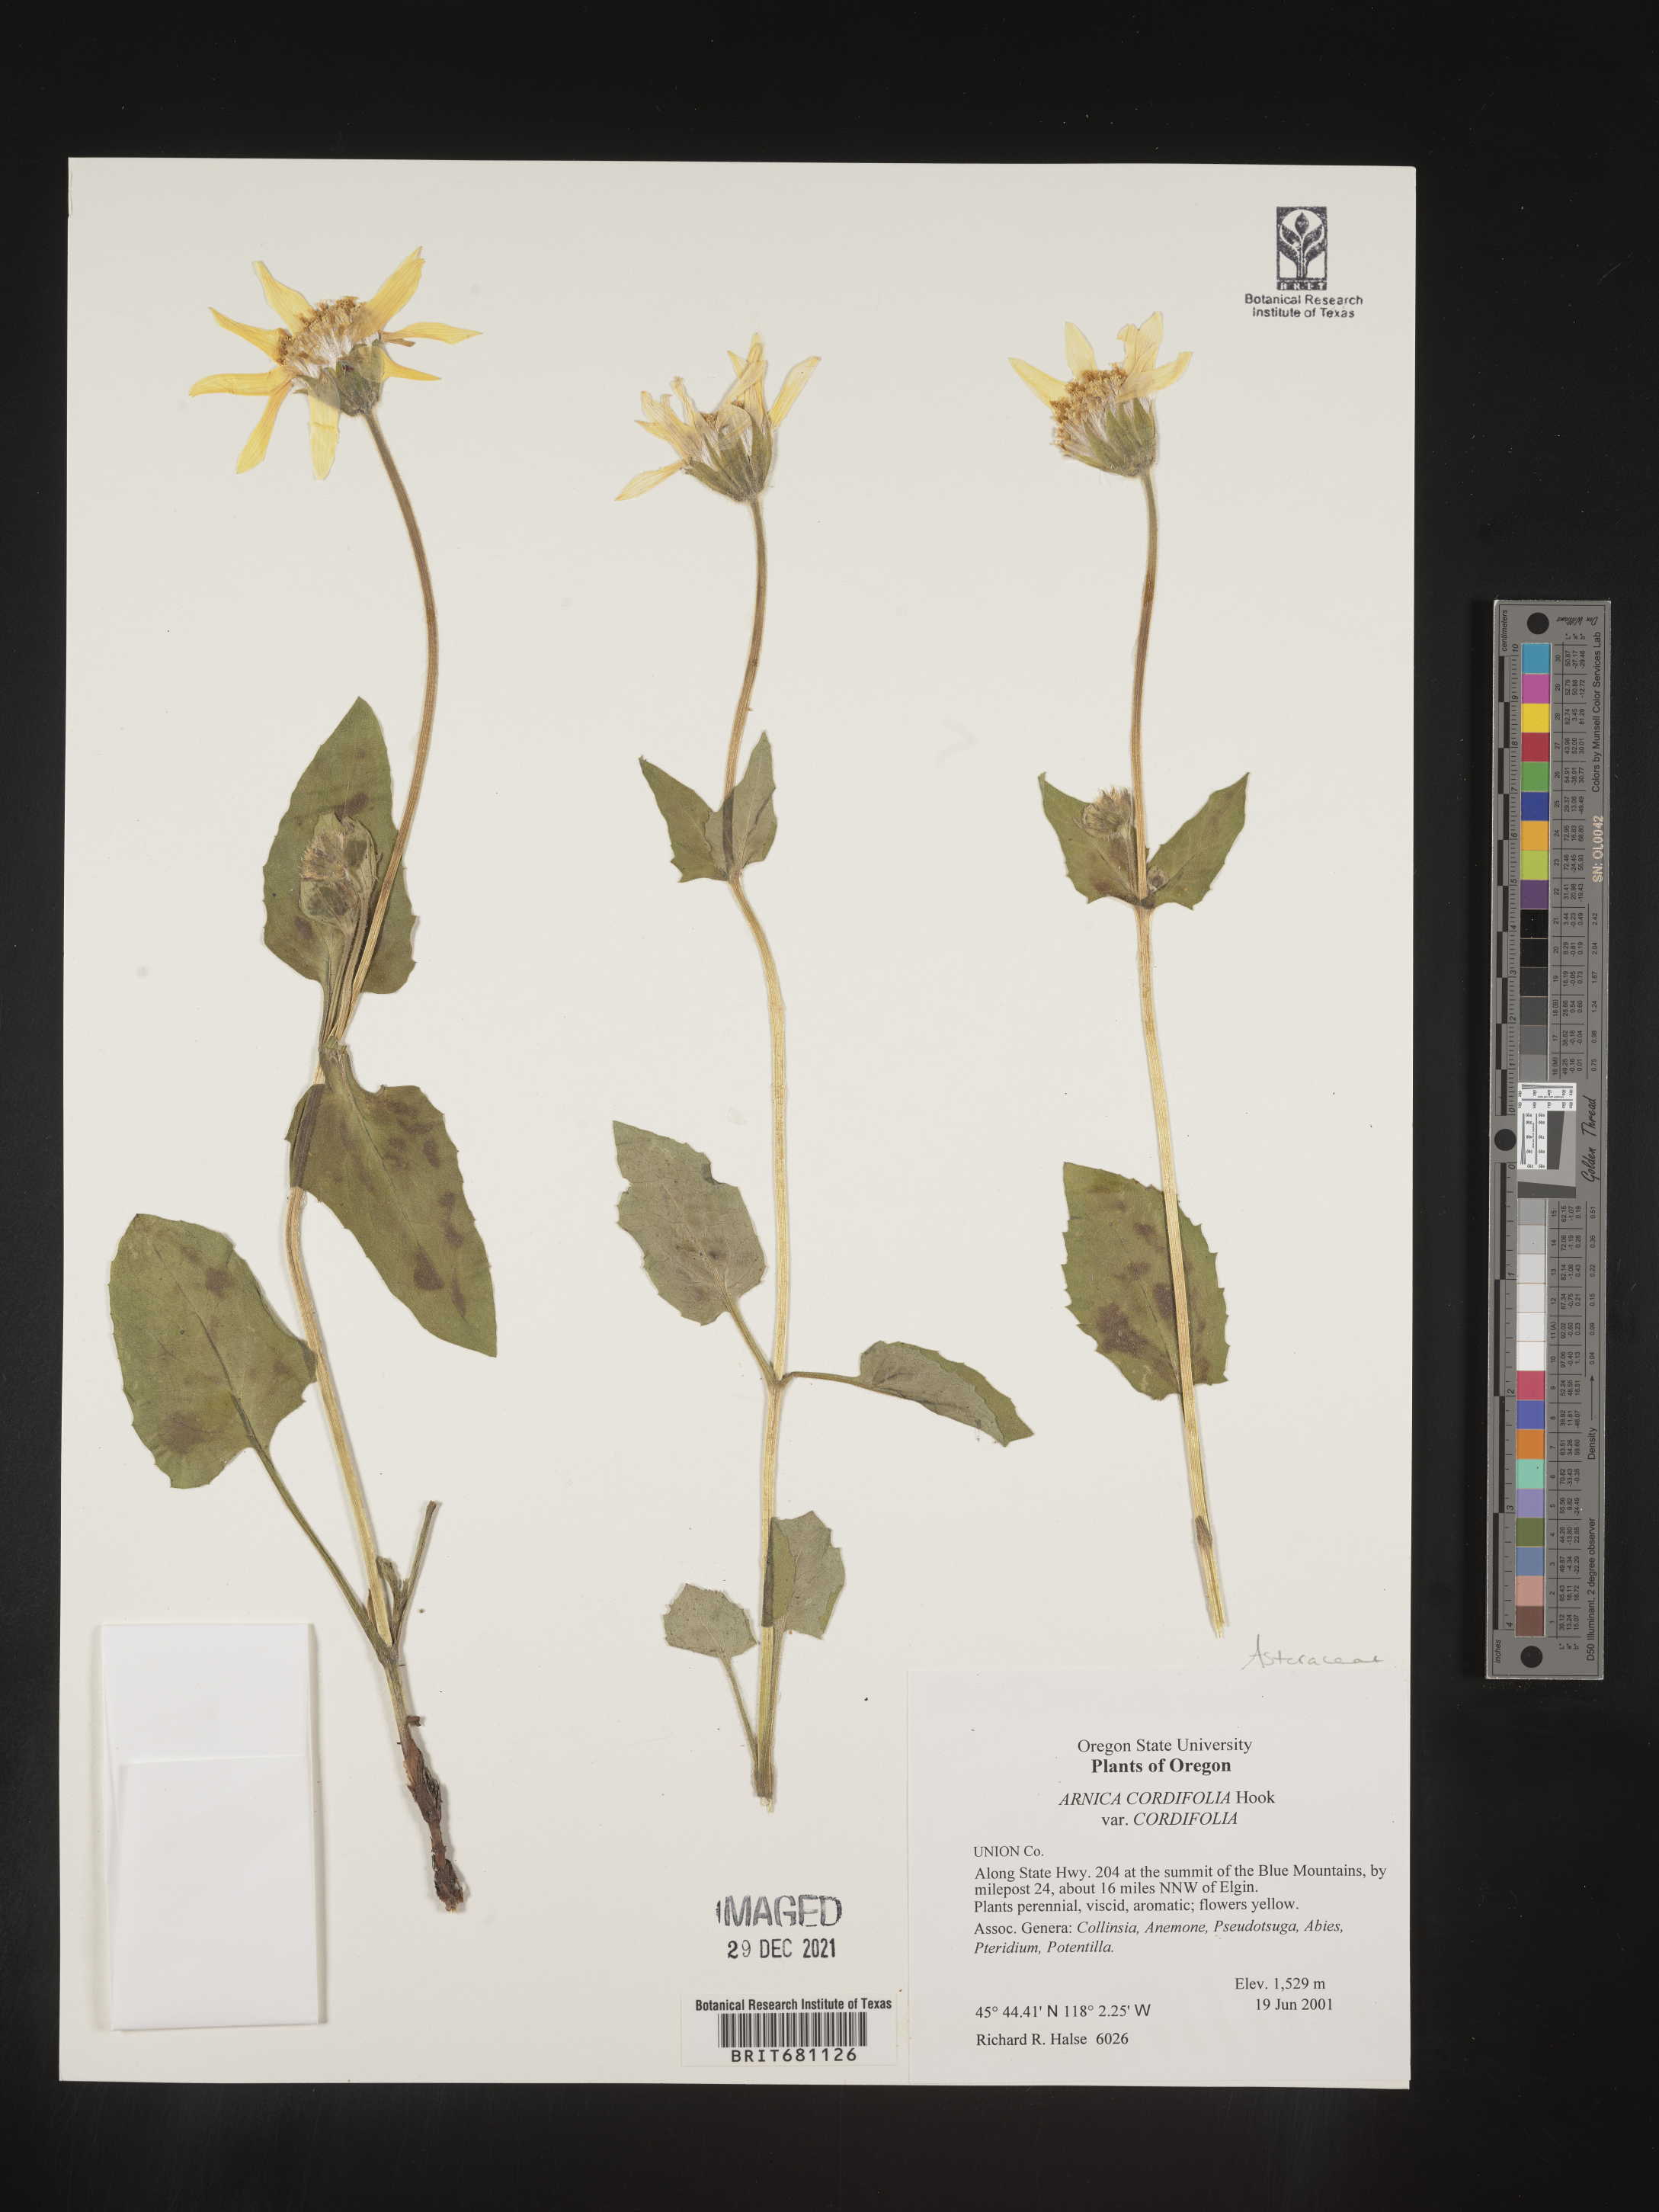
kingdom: Plantae
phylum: Tracheophyta
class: Magnoliopsida
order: Asterales
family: Asteraceae
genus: Arnica
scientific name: Arnica cordifolia
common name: Heart-leaf arnica
